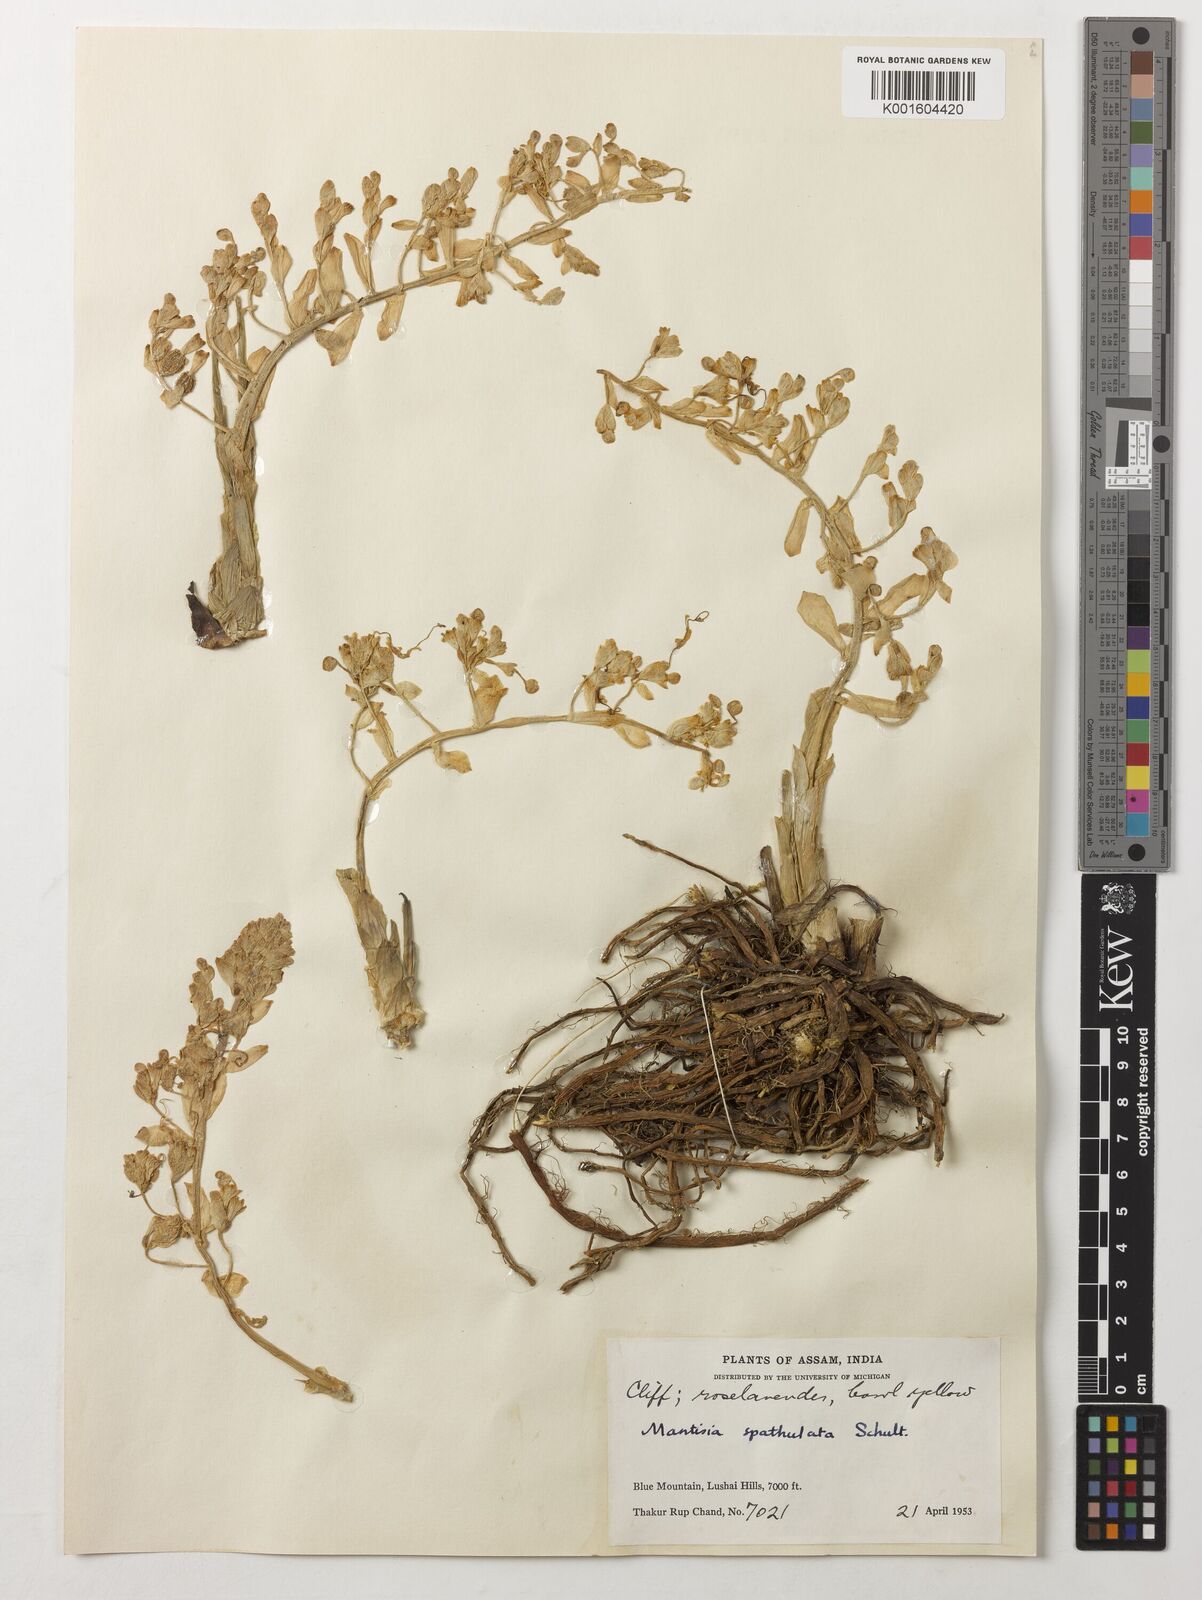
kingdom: Plantae
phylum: Tracheophyta
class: Liliopsida
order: Zingiberales
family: Zingiberaceae
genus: Globba
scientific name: Globba spathulata
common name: Dancing girl flower
